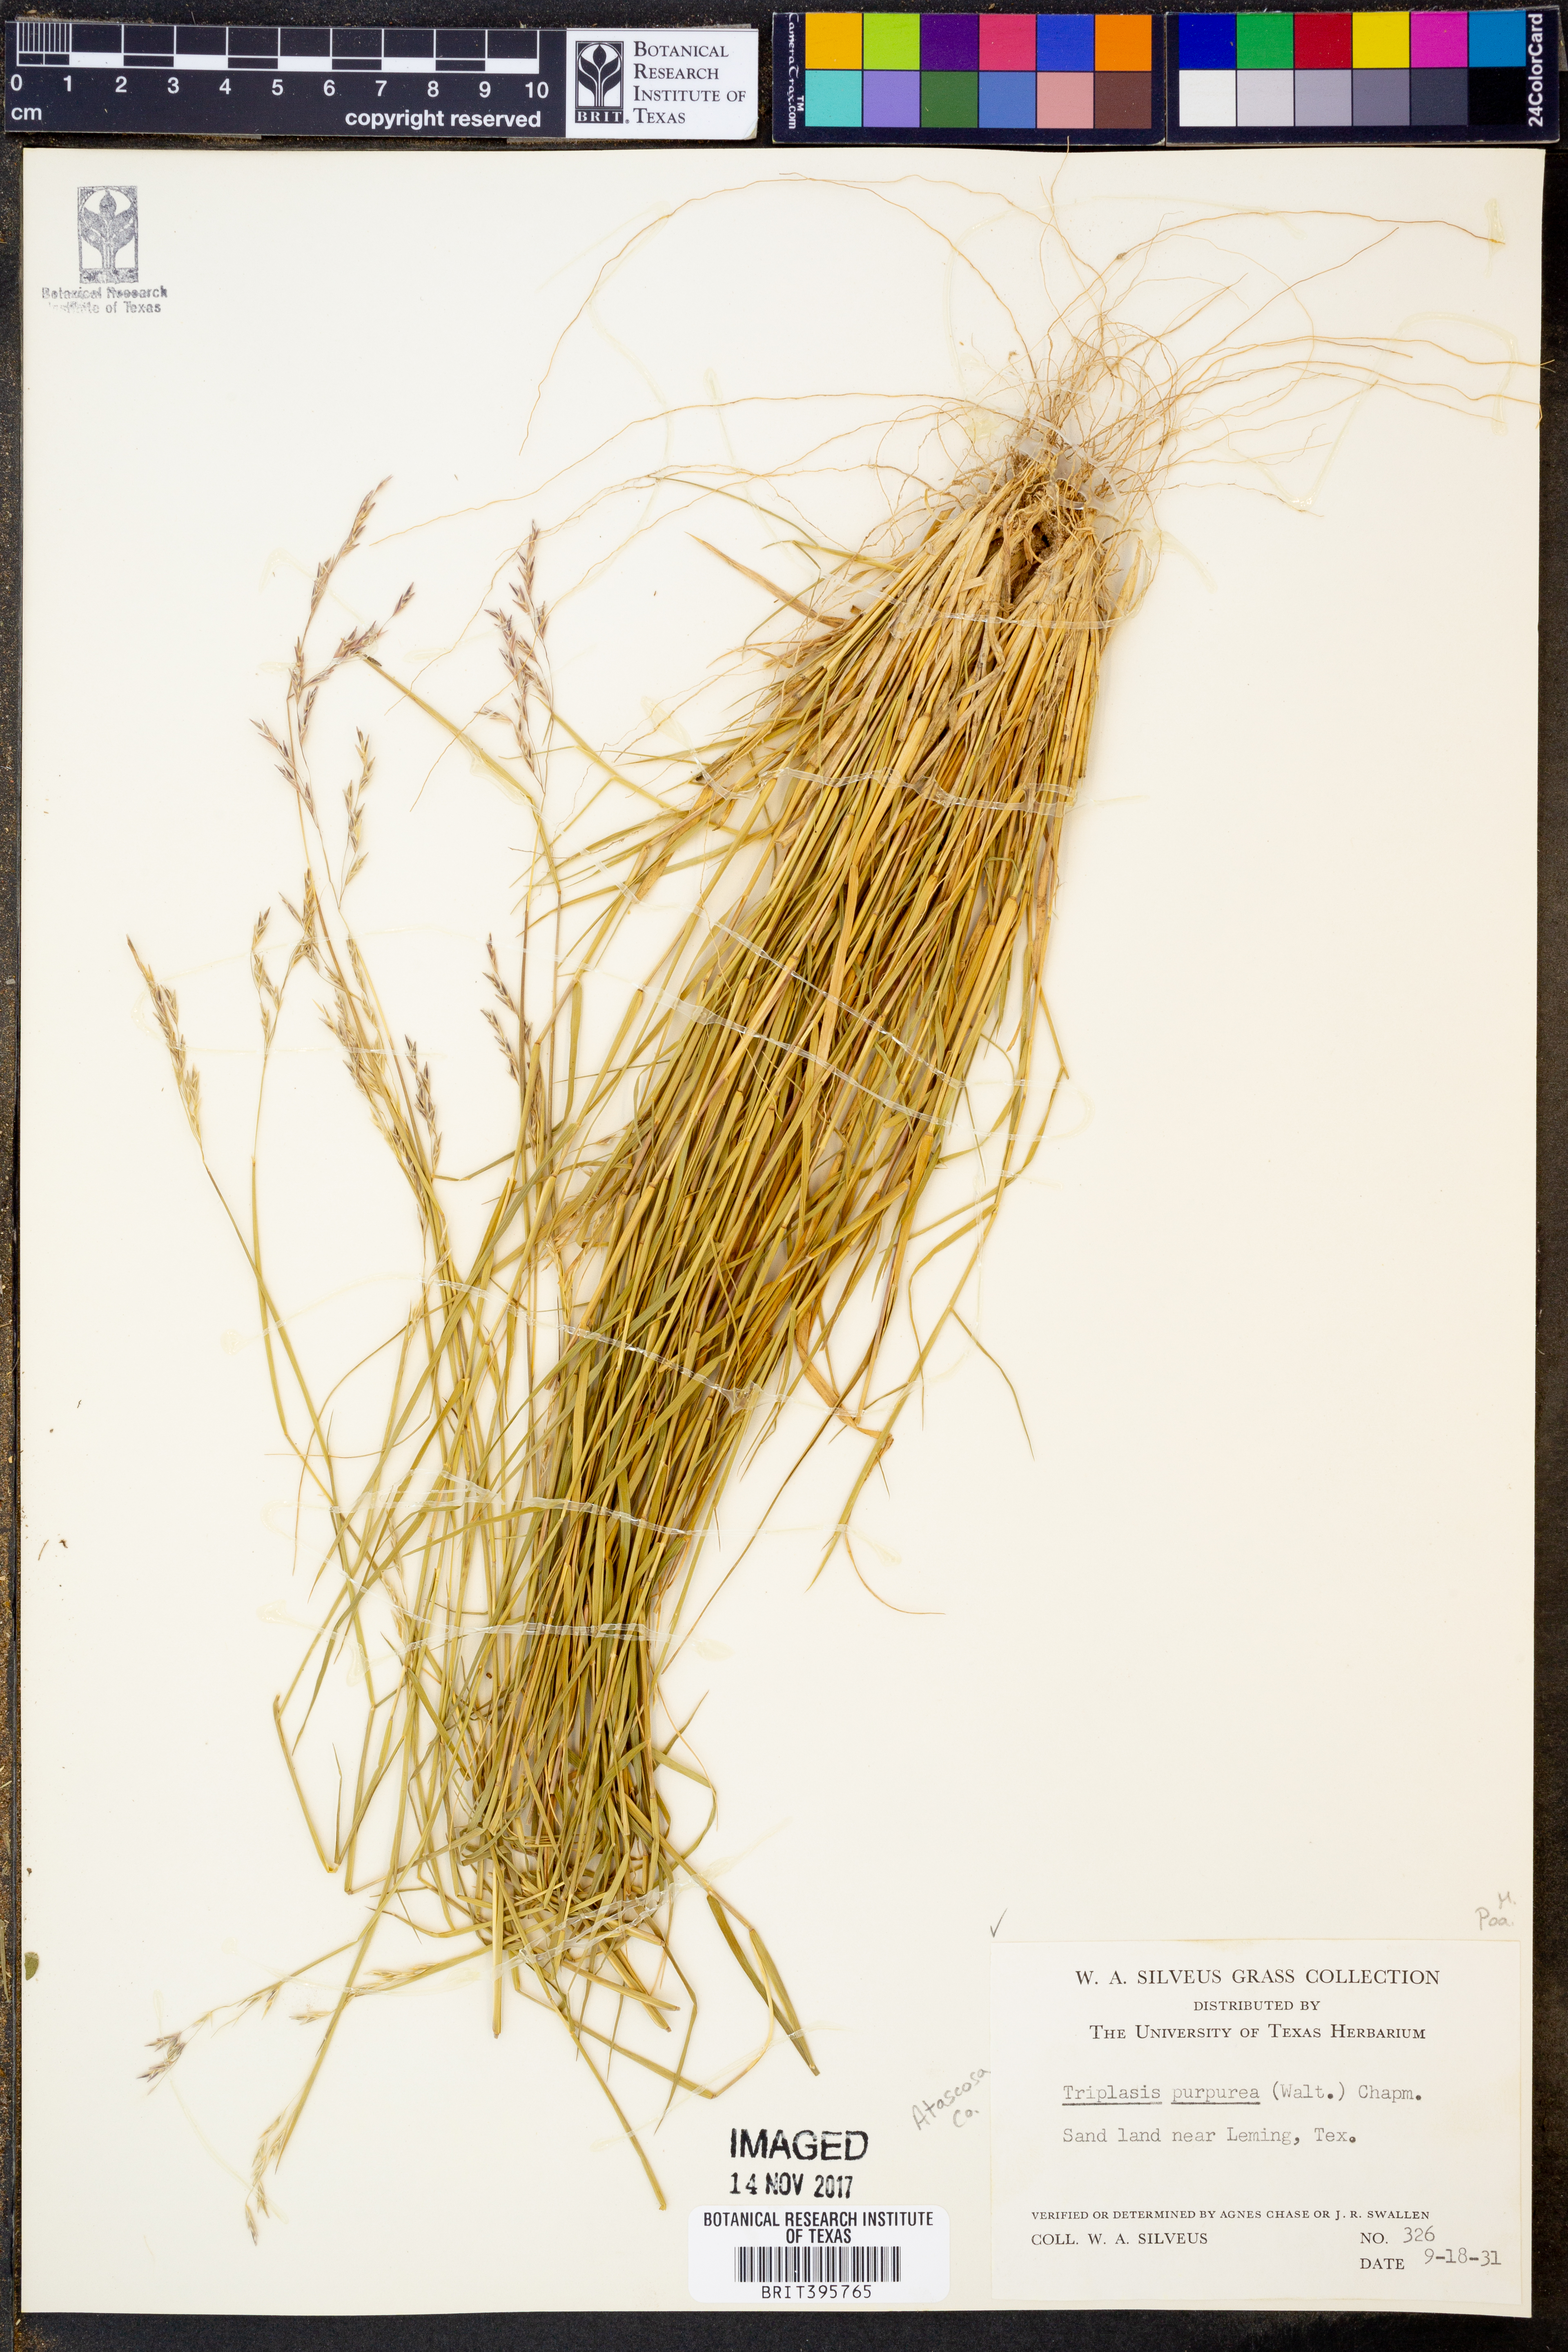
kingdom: Plantae
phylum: Tracheophyta
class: Liliopsida
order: Poales
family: Poaceae
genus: Triplasis
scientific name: Triplasis purpurea
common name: Purple sand grass
